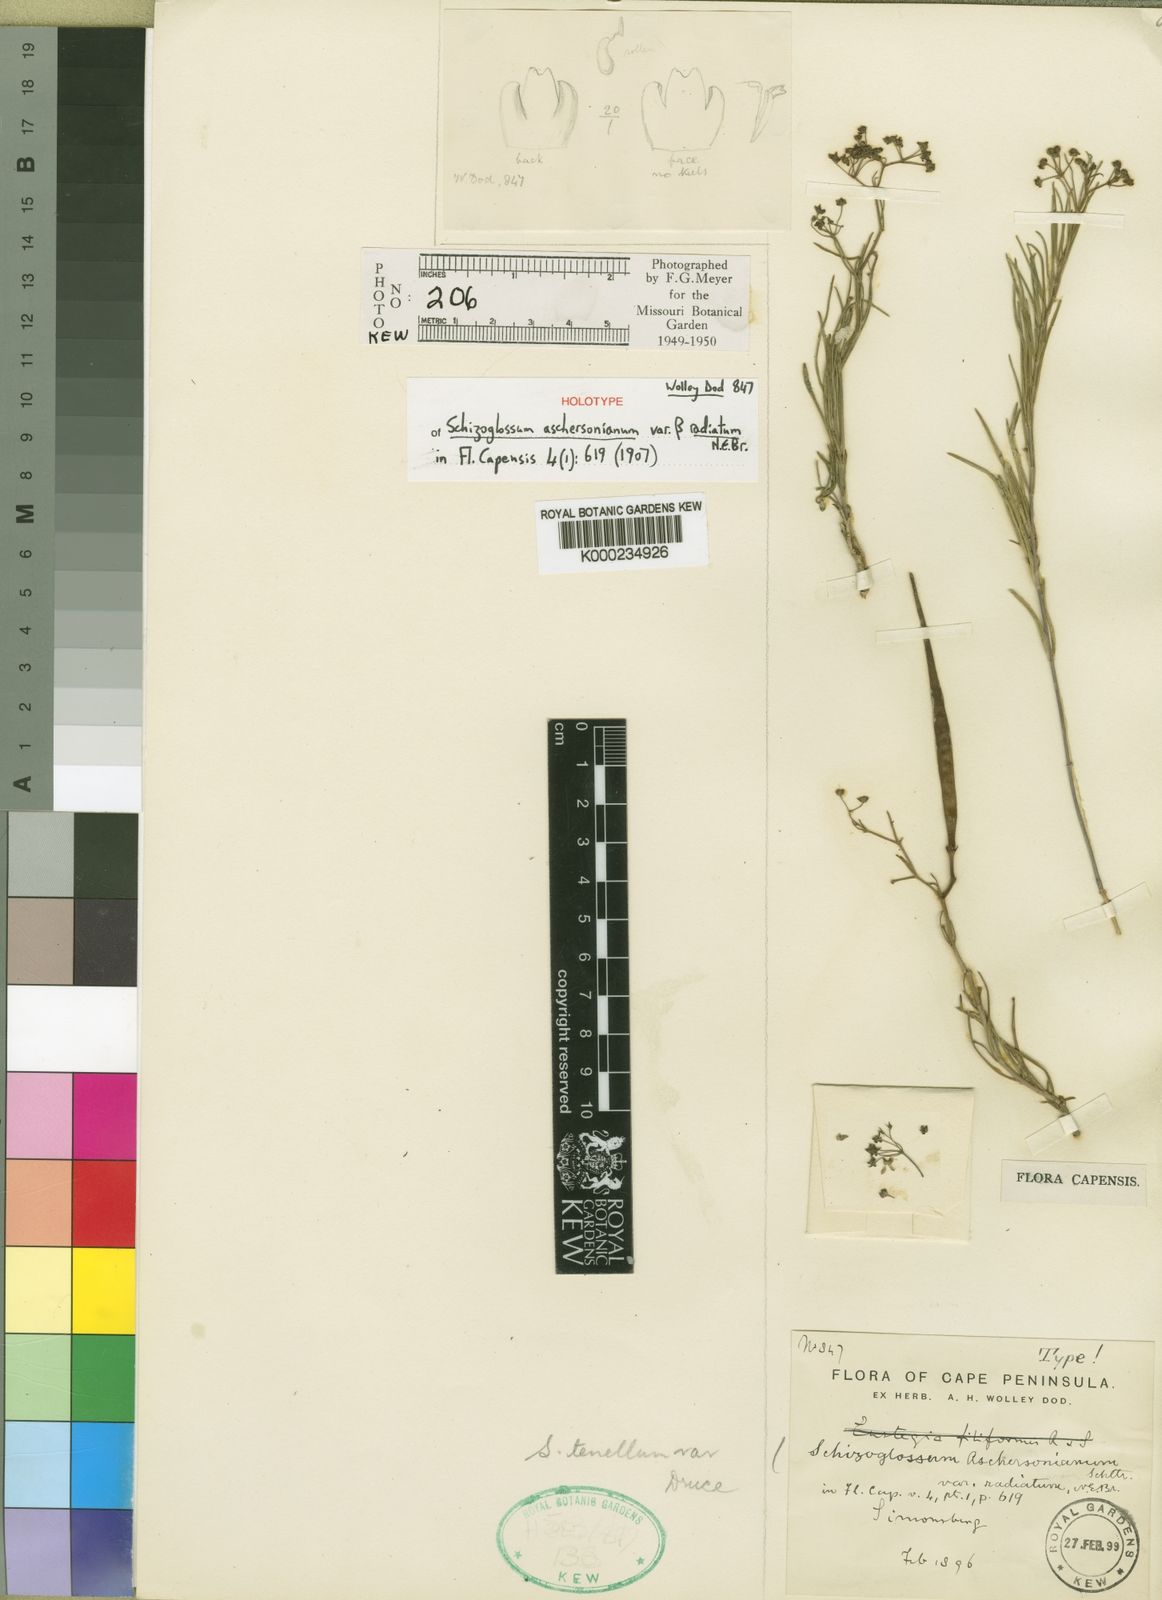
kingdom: Plantae
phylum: Tracheophyta
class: Magnoliopsida
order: Gentianales
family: Apocynaceae
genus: Schizoglossum
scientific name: Schizoglossum aschersonianum
